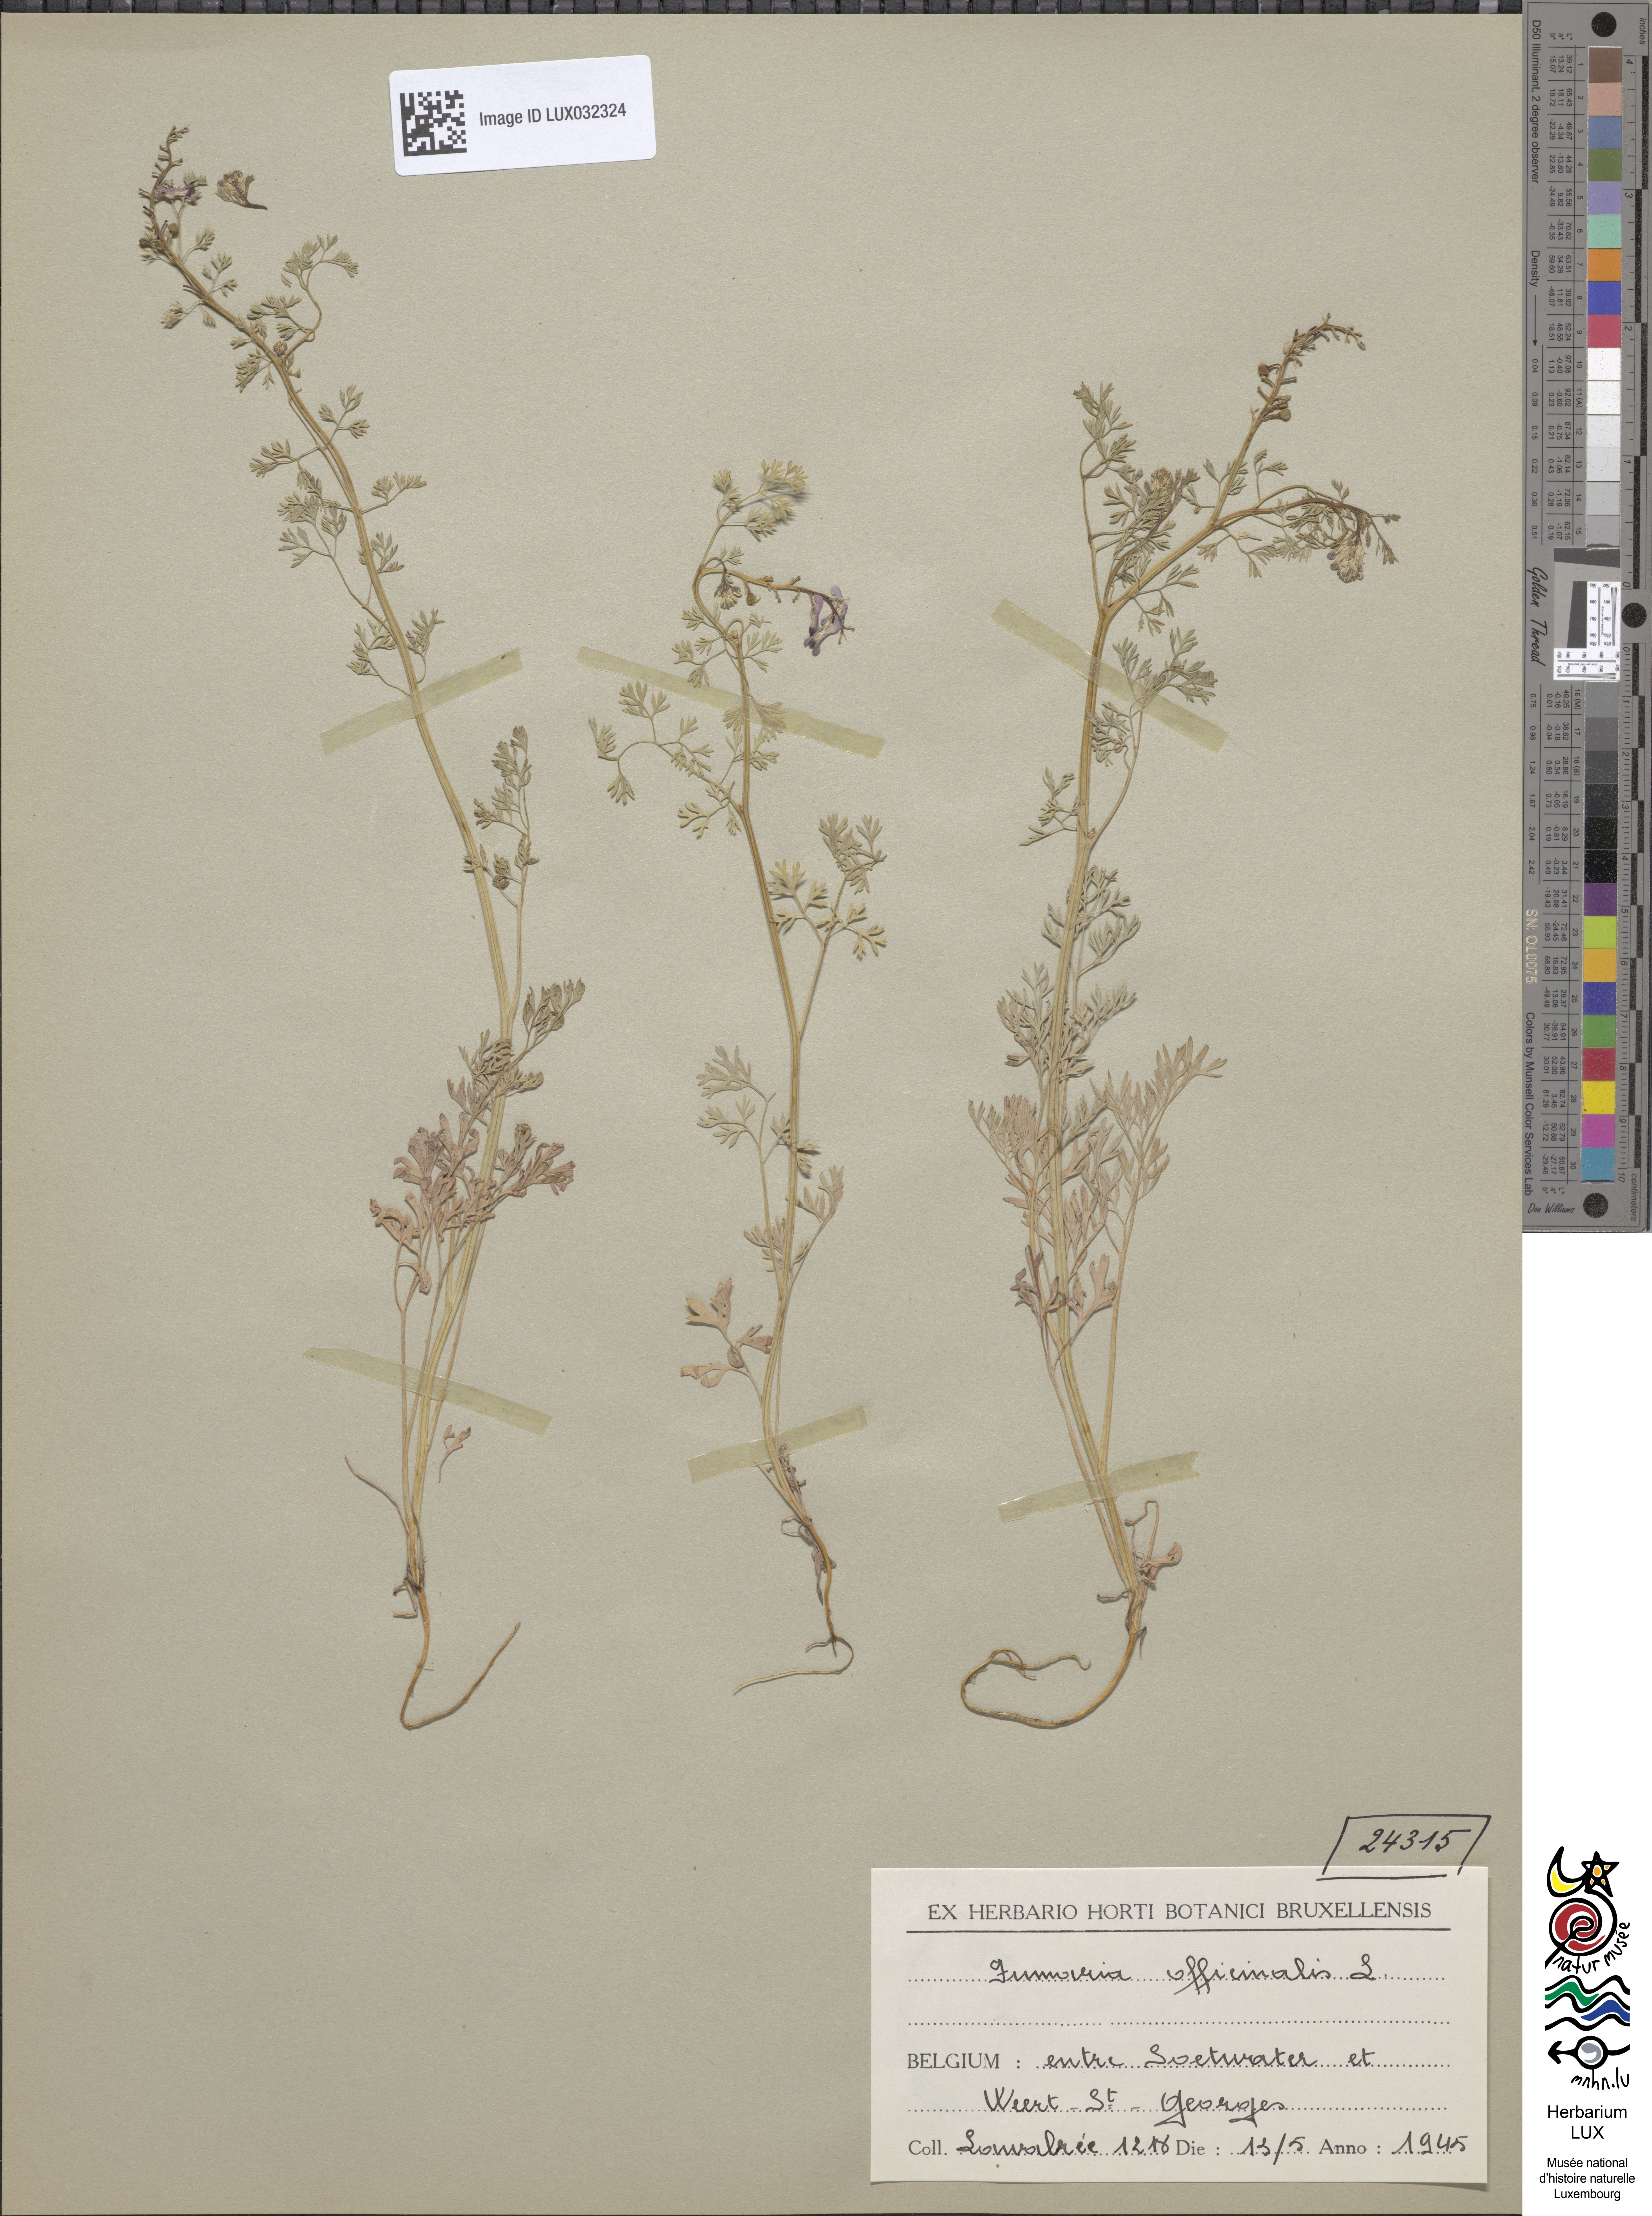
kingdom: Plantae
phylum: Tracheophyta
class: Magnoliopsida
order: Ranunculales
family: Papaveraceae
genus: Fumaria
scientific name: Fumaria officinalis
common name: Common fumitory
